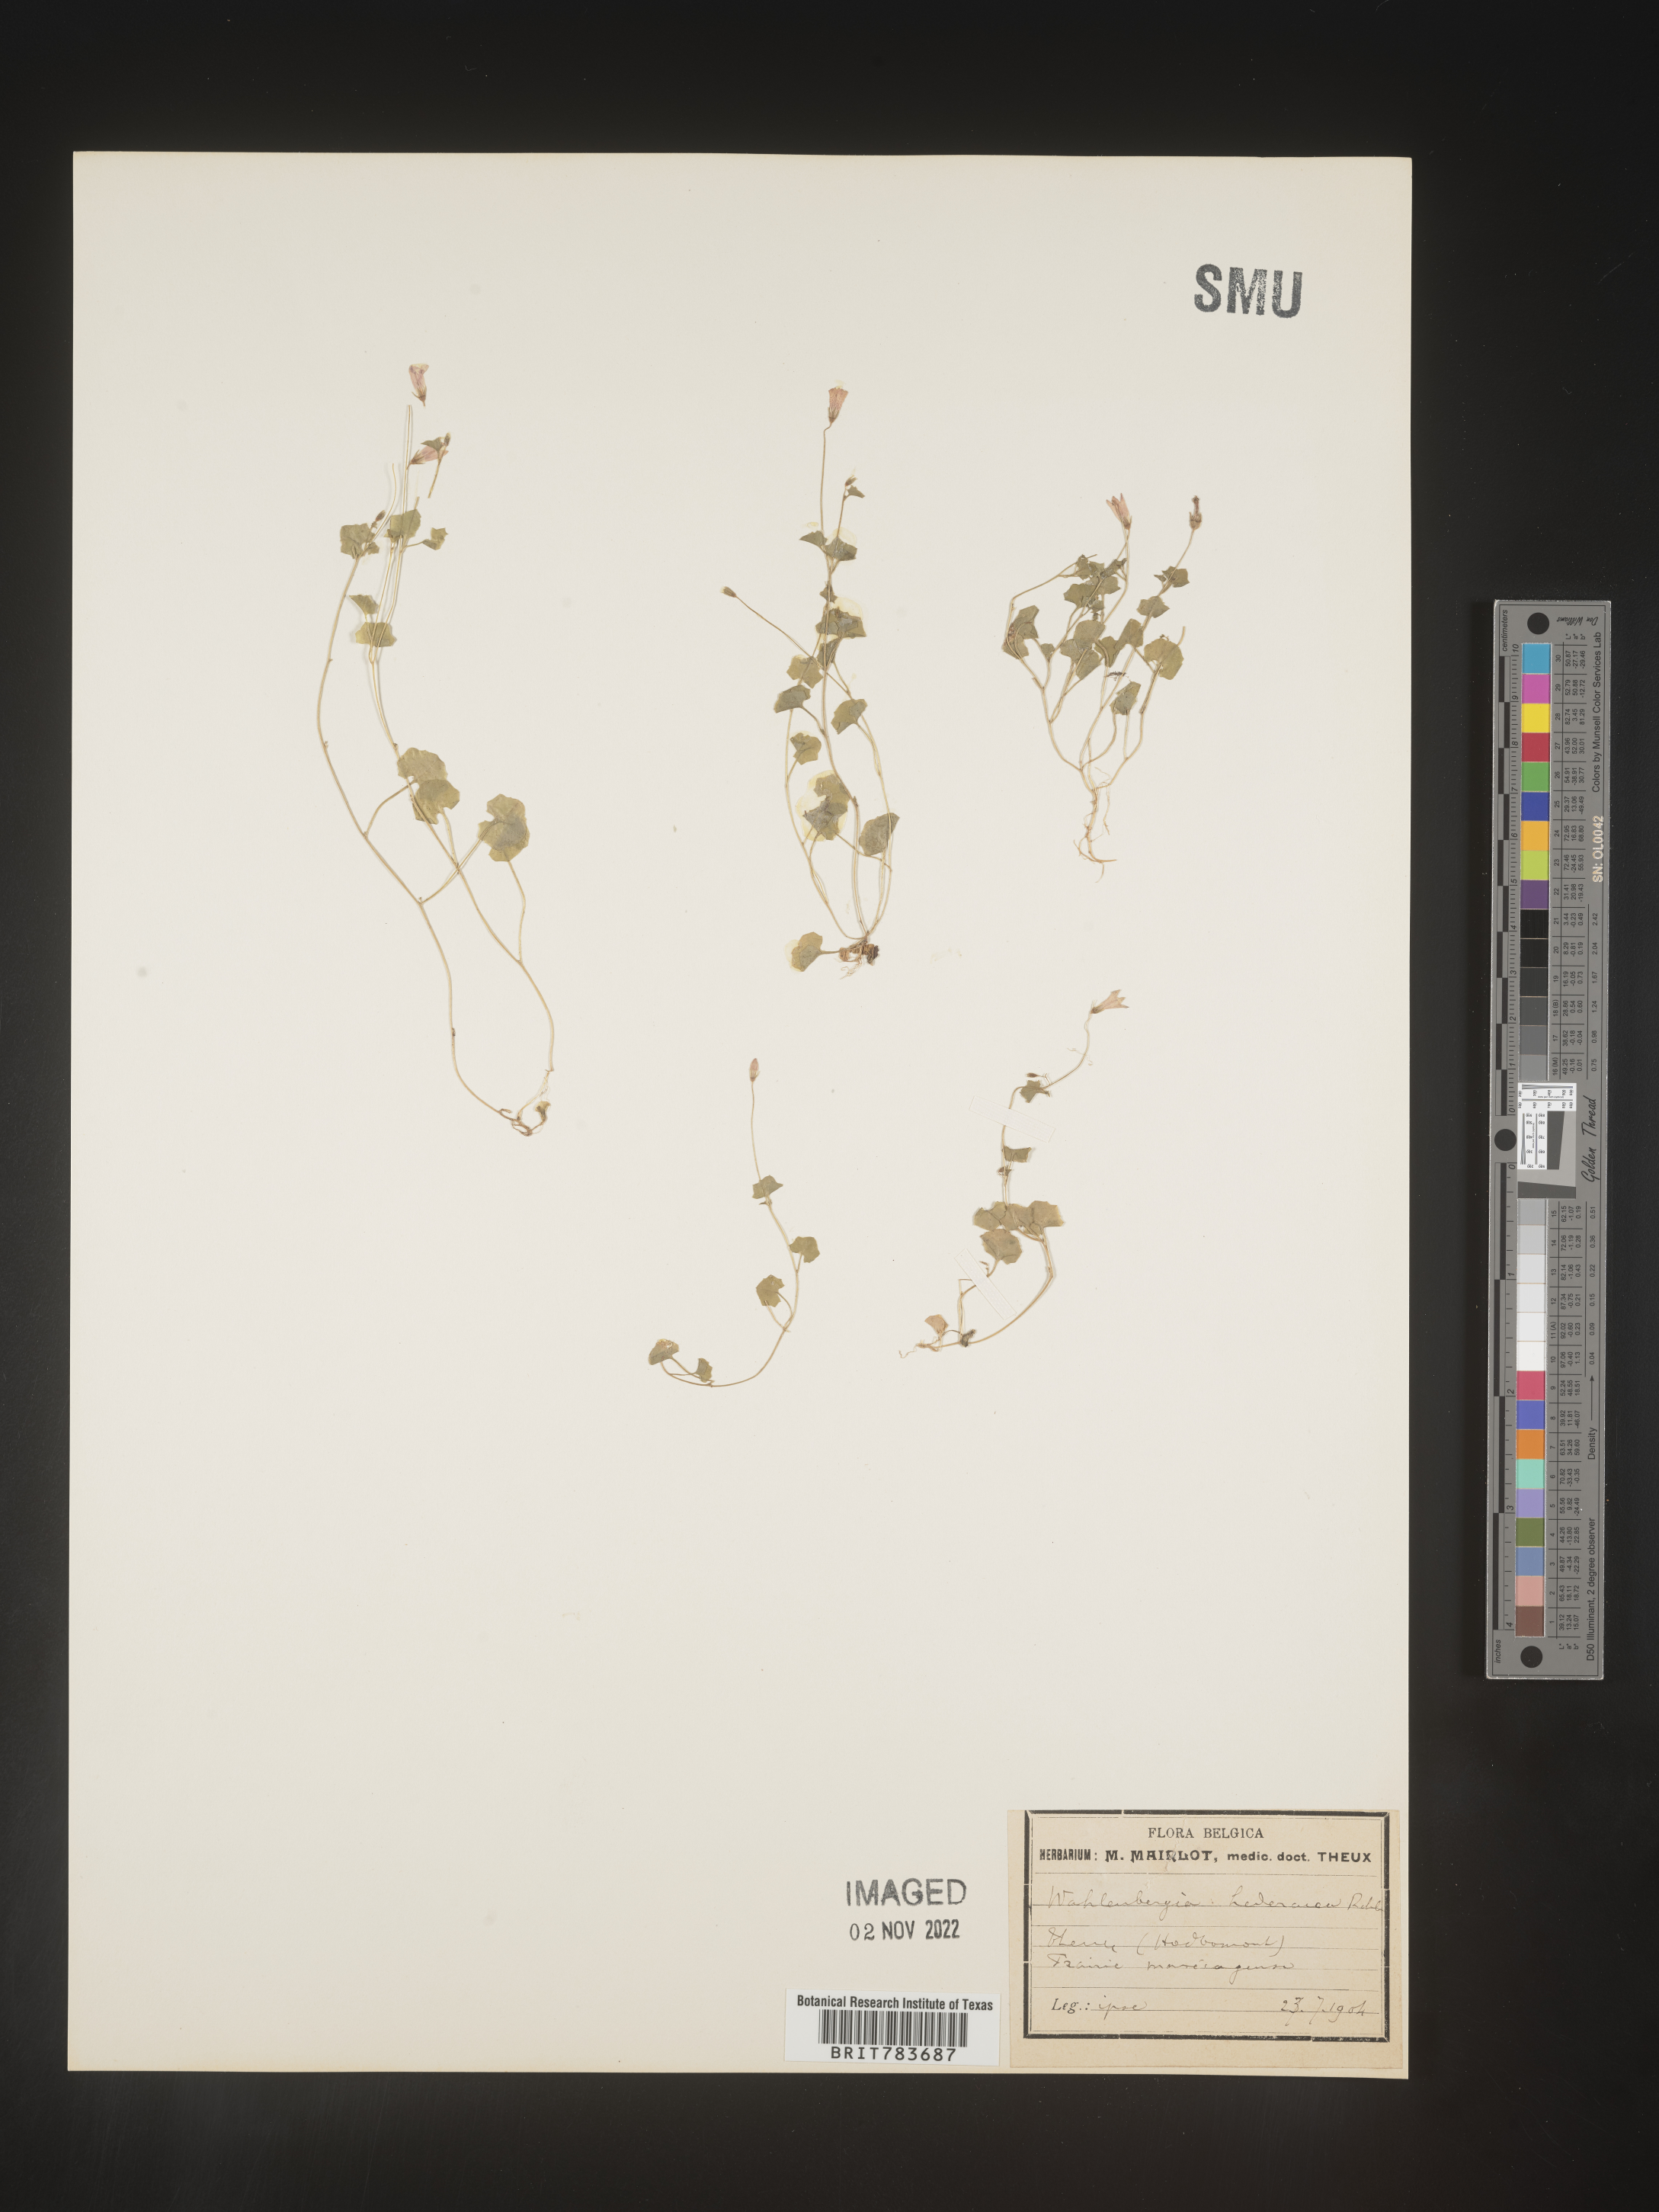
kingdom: Plantae
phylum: Tracheophyta
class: Magnoliopsida
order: Asterales
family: Campanulaceae
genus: Wahlenbergia
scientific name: Wahlenbergia
